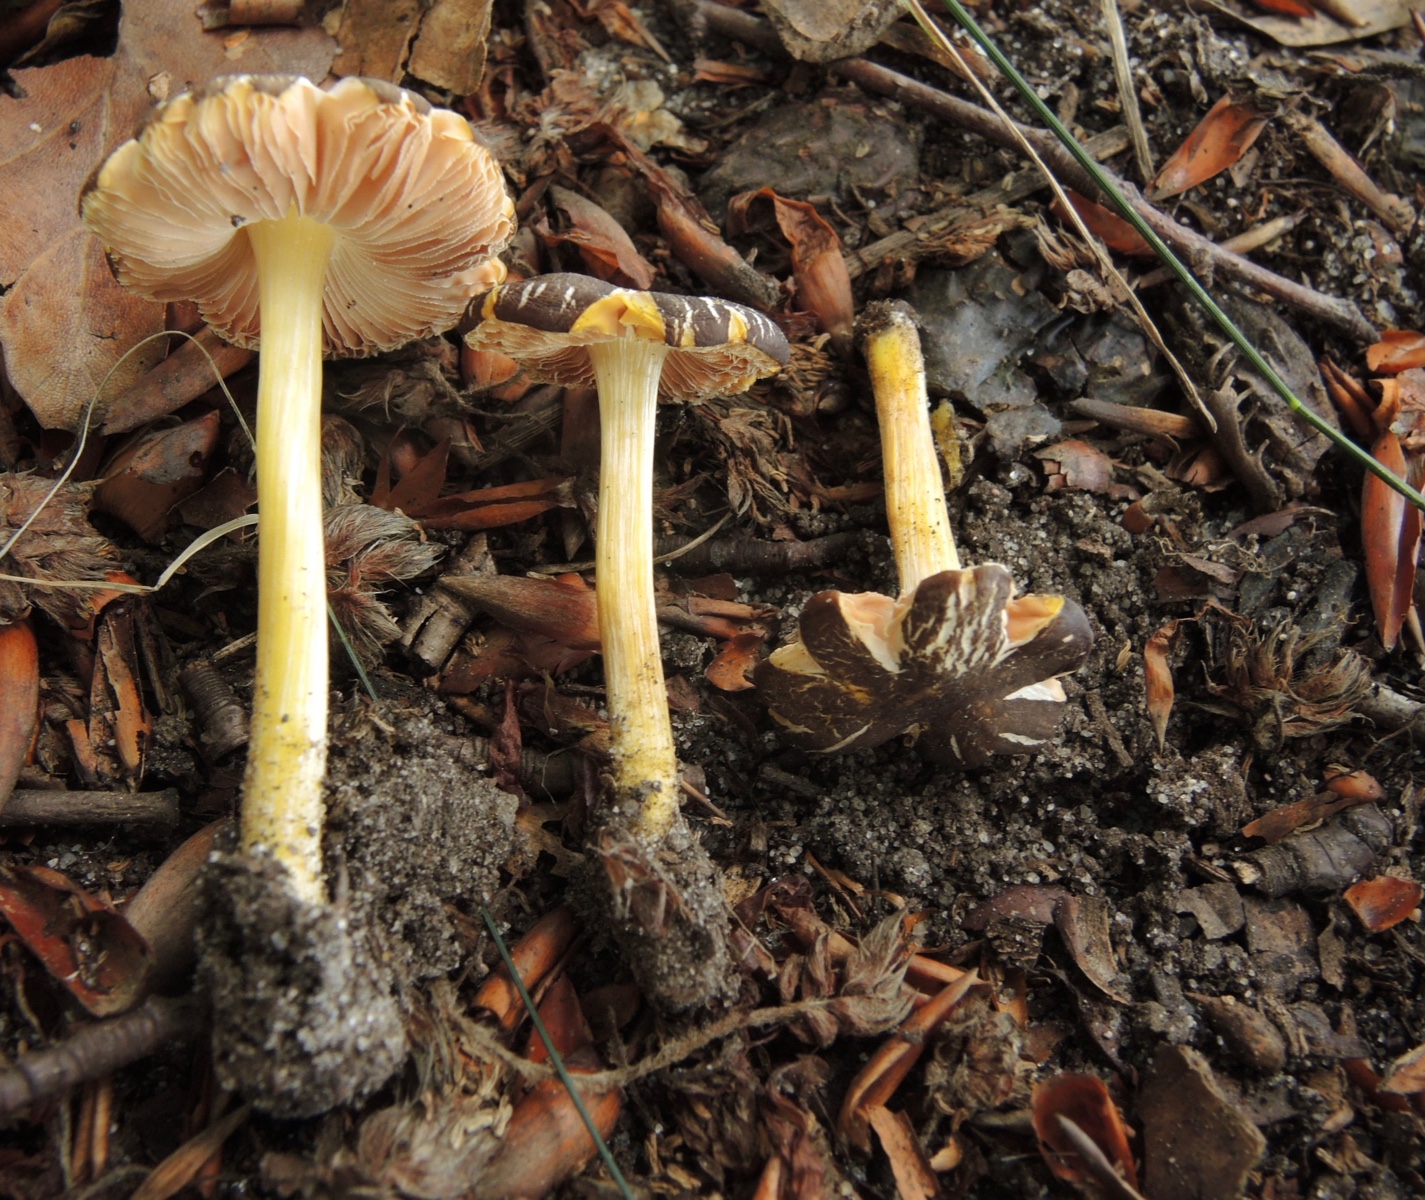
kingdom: Fungi
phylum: Basidiomycota
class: Agaricomycetes
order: Agaricales
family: Pluteaceae
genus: Pluteus
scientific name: Pluteus romellii
